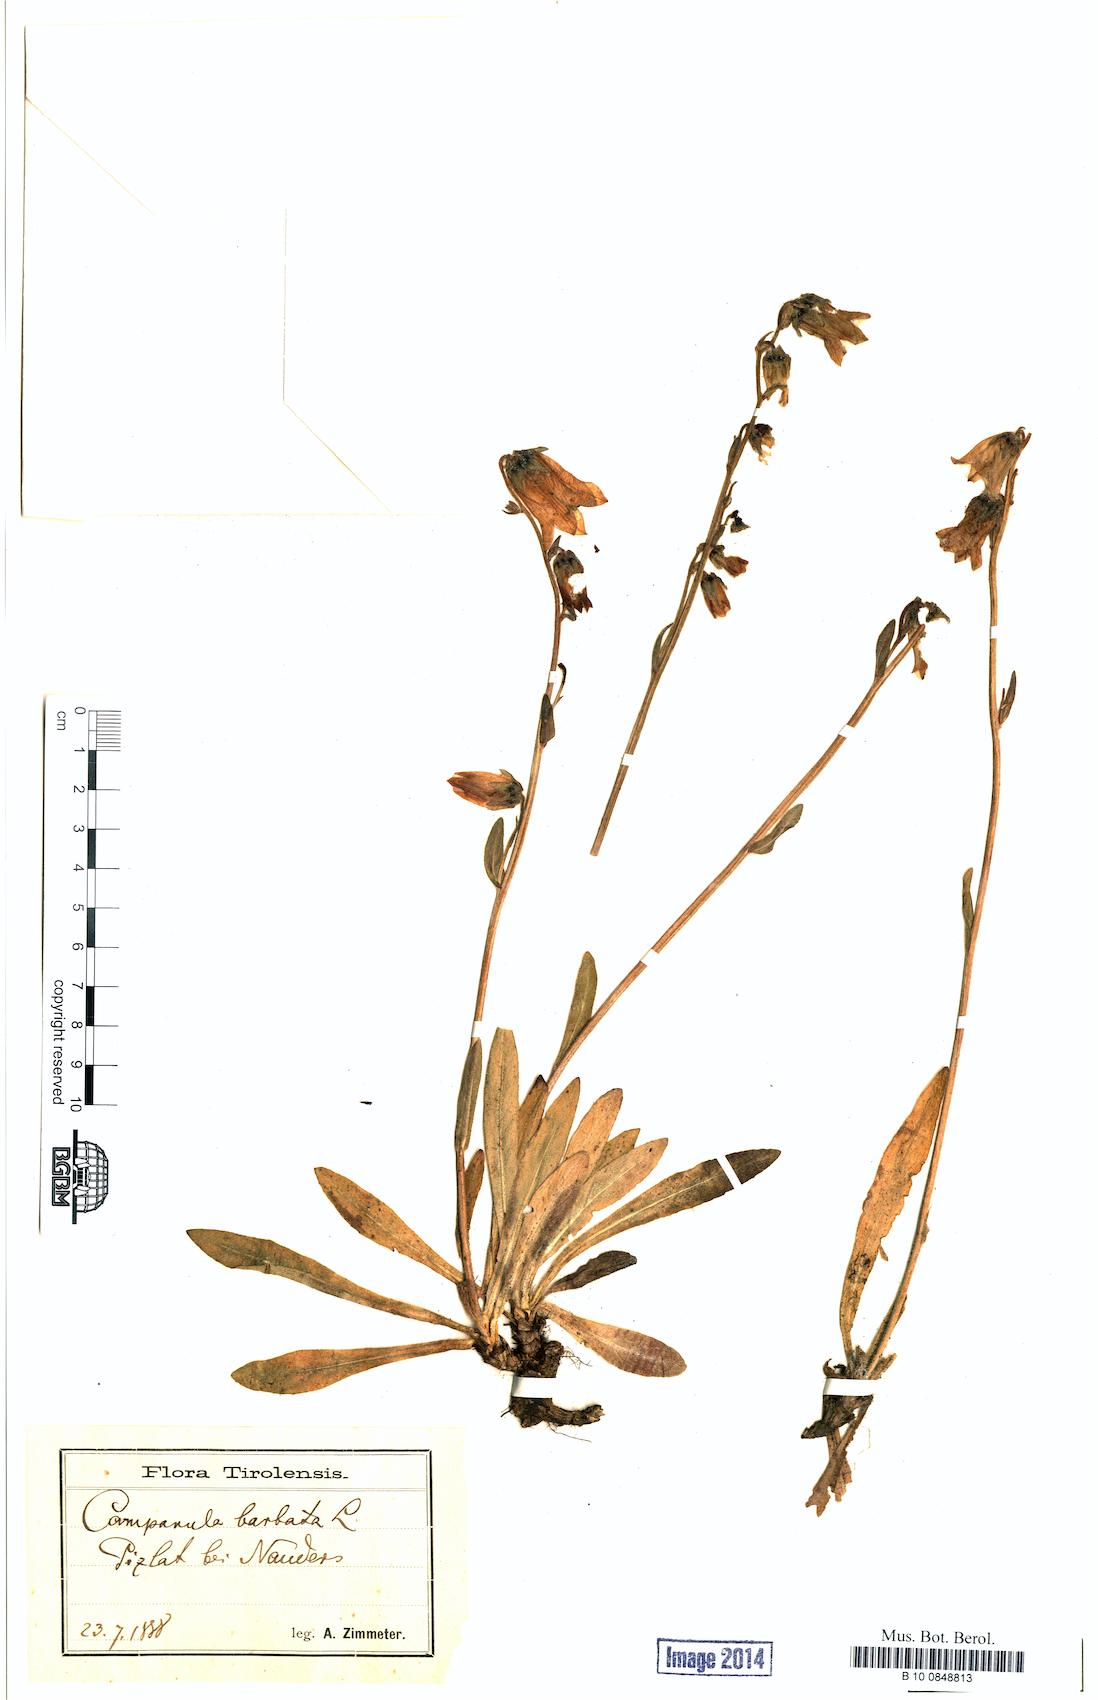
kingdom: Plantae
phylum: Tracheophyta
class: Magnoliopsida
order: Asterales
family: Campanulaceae
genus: Campanula
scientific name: Campanula barbata
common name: Bearded bellflower
